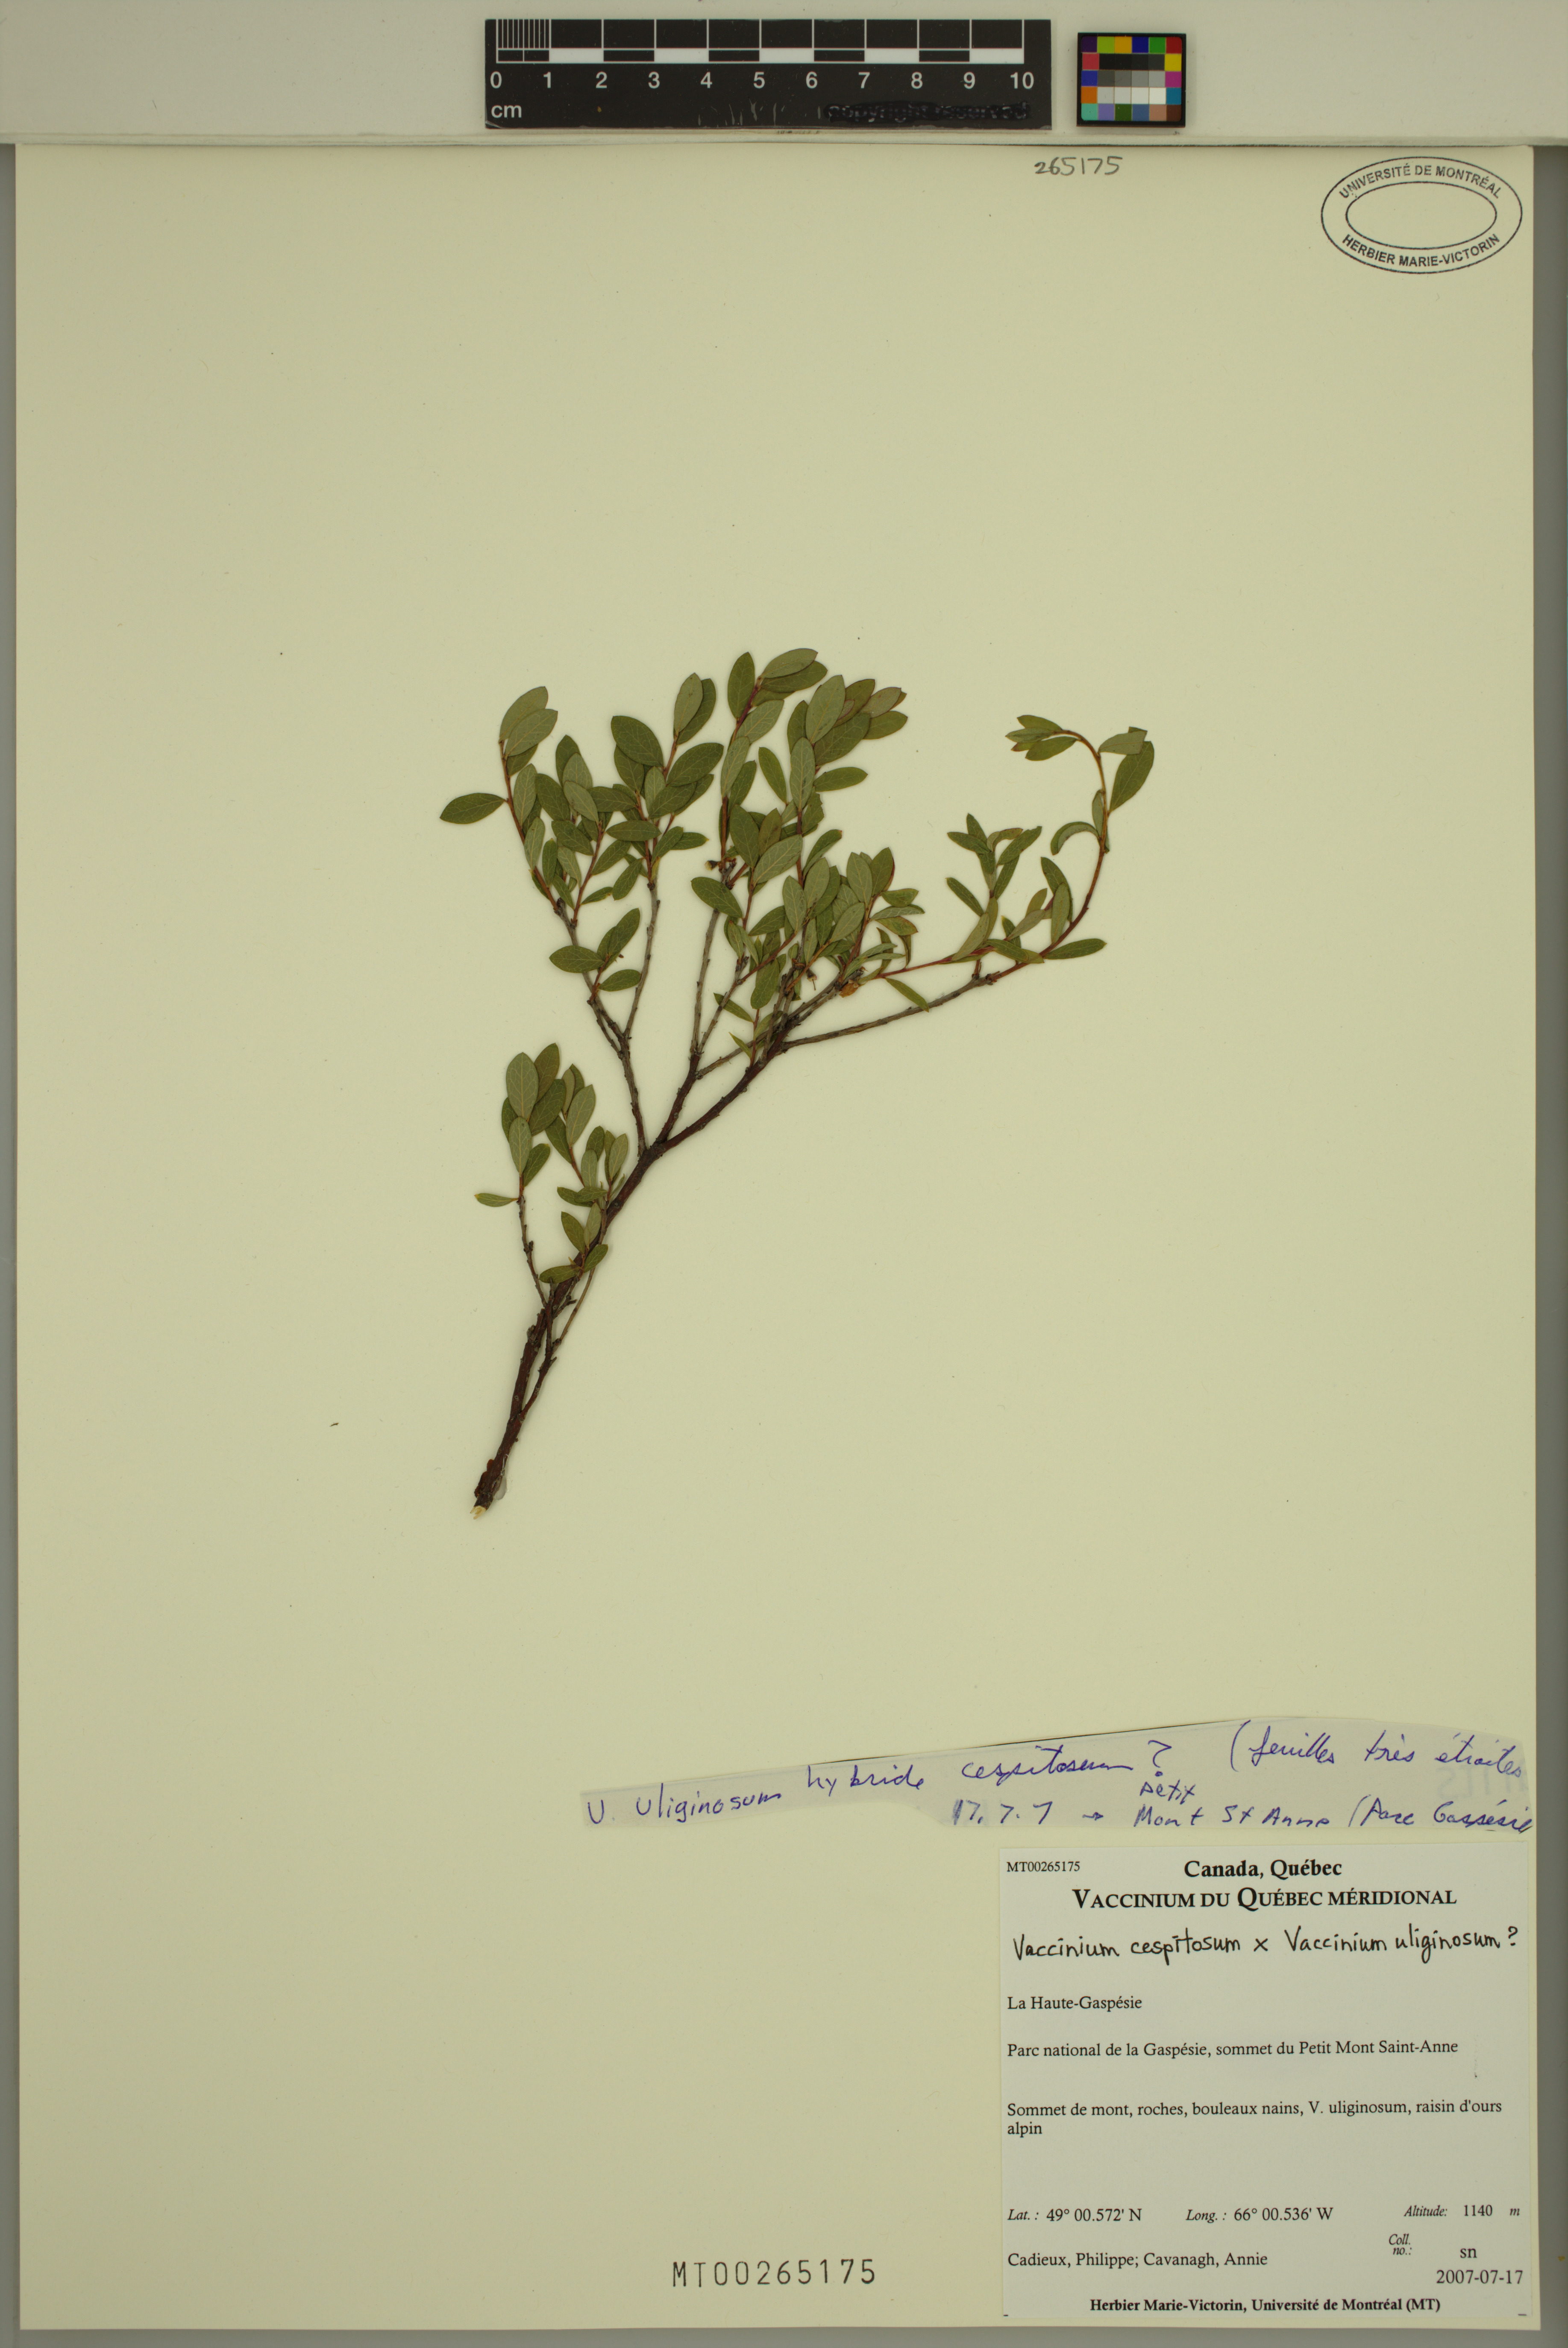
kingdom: Plantae
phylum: Tracheophyta
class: Magnoliopsida
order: Ericales
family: Ericaceae
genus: Vaccinium
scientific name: Vaccinium cespitosum
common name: Dwarf bilberry
